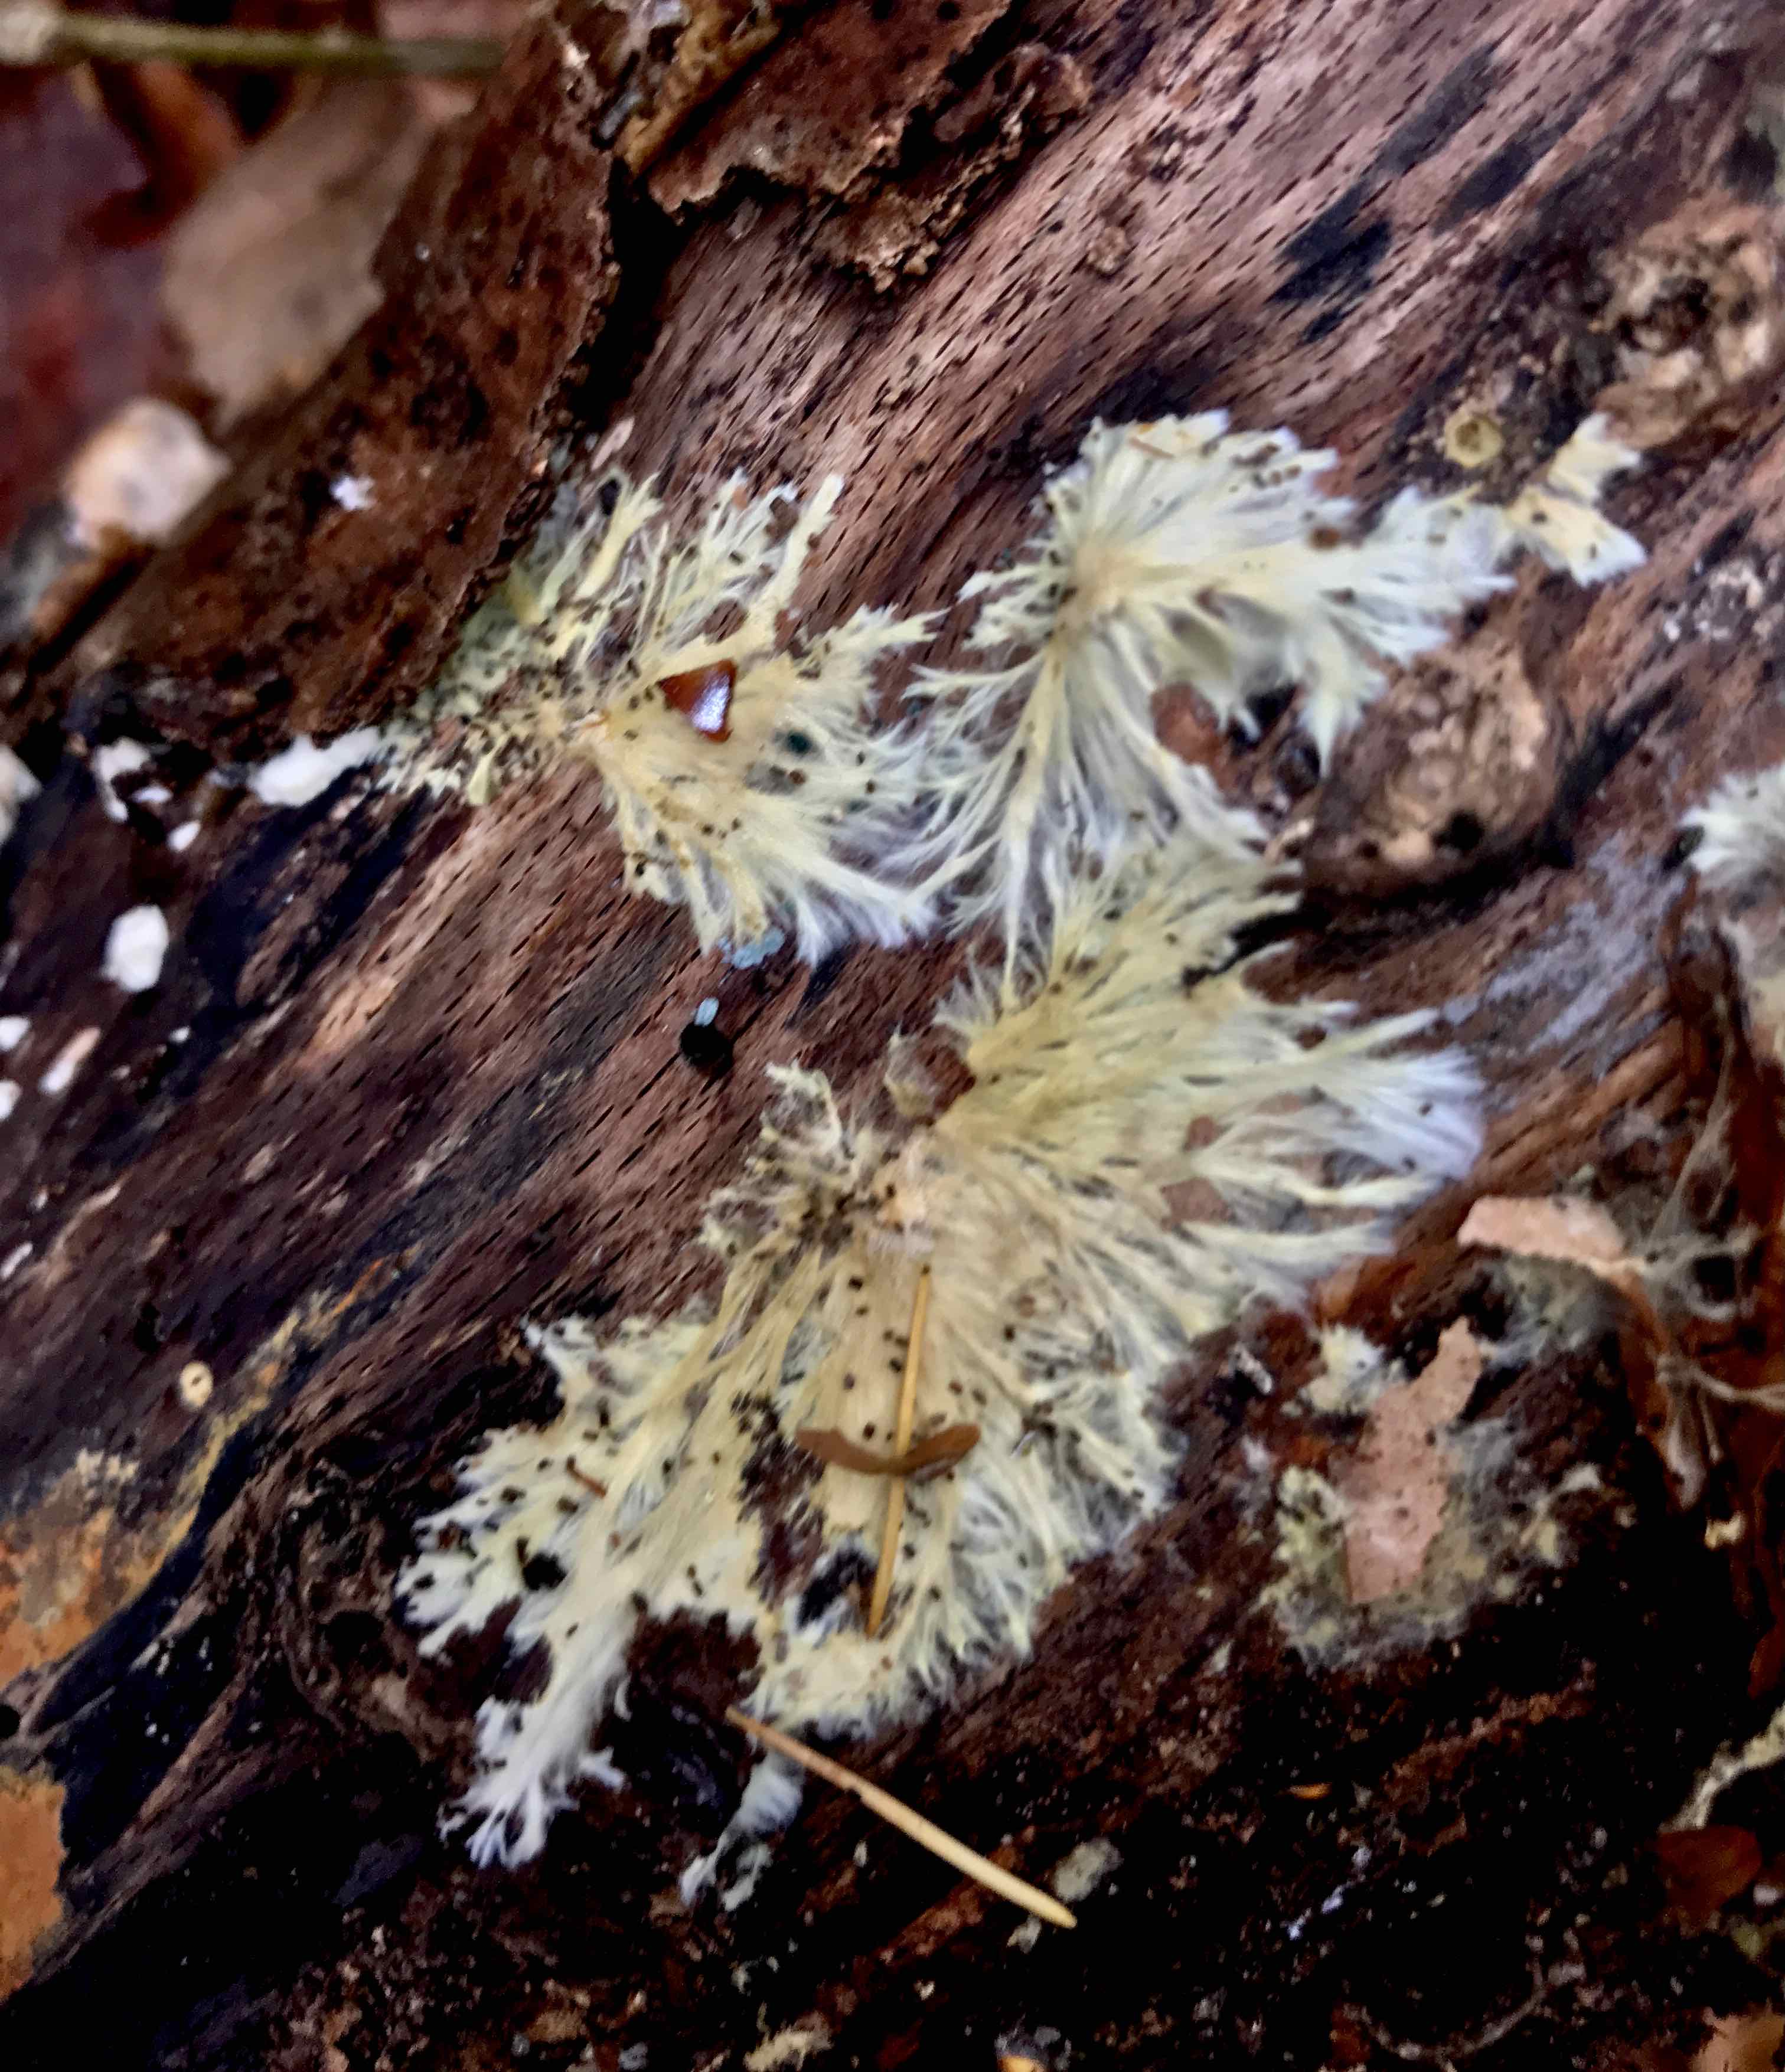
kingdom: Fungi
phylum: Basidiomycota
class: Agaricomycetes
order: Russulales
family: Xenasmataceae
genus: Xenasmatella
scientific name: Xenasmatella vaga
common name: svovl-strenghinde
